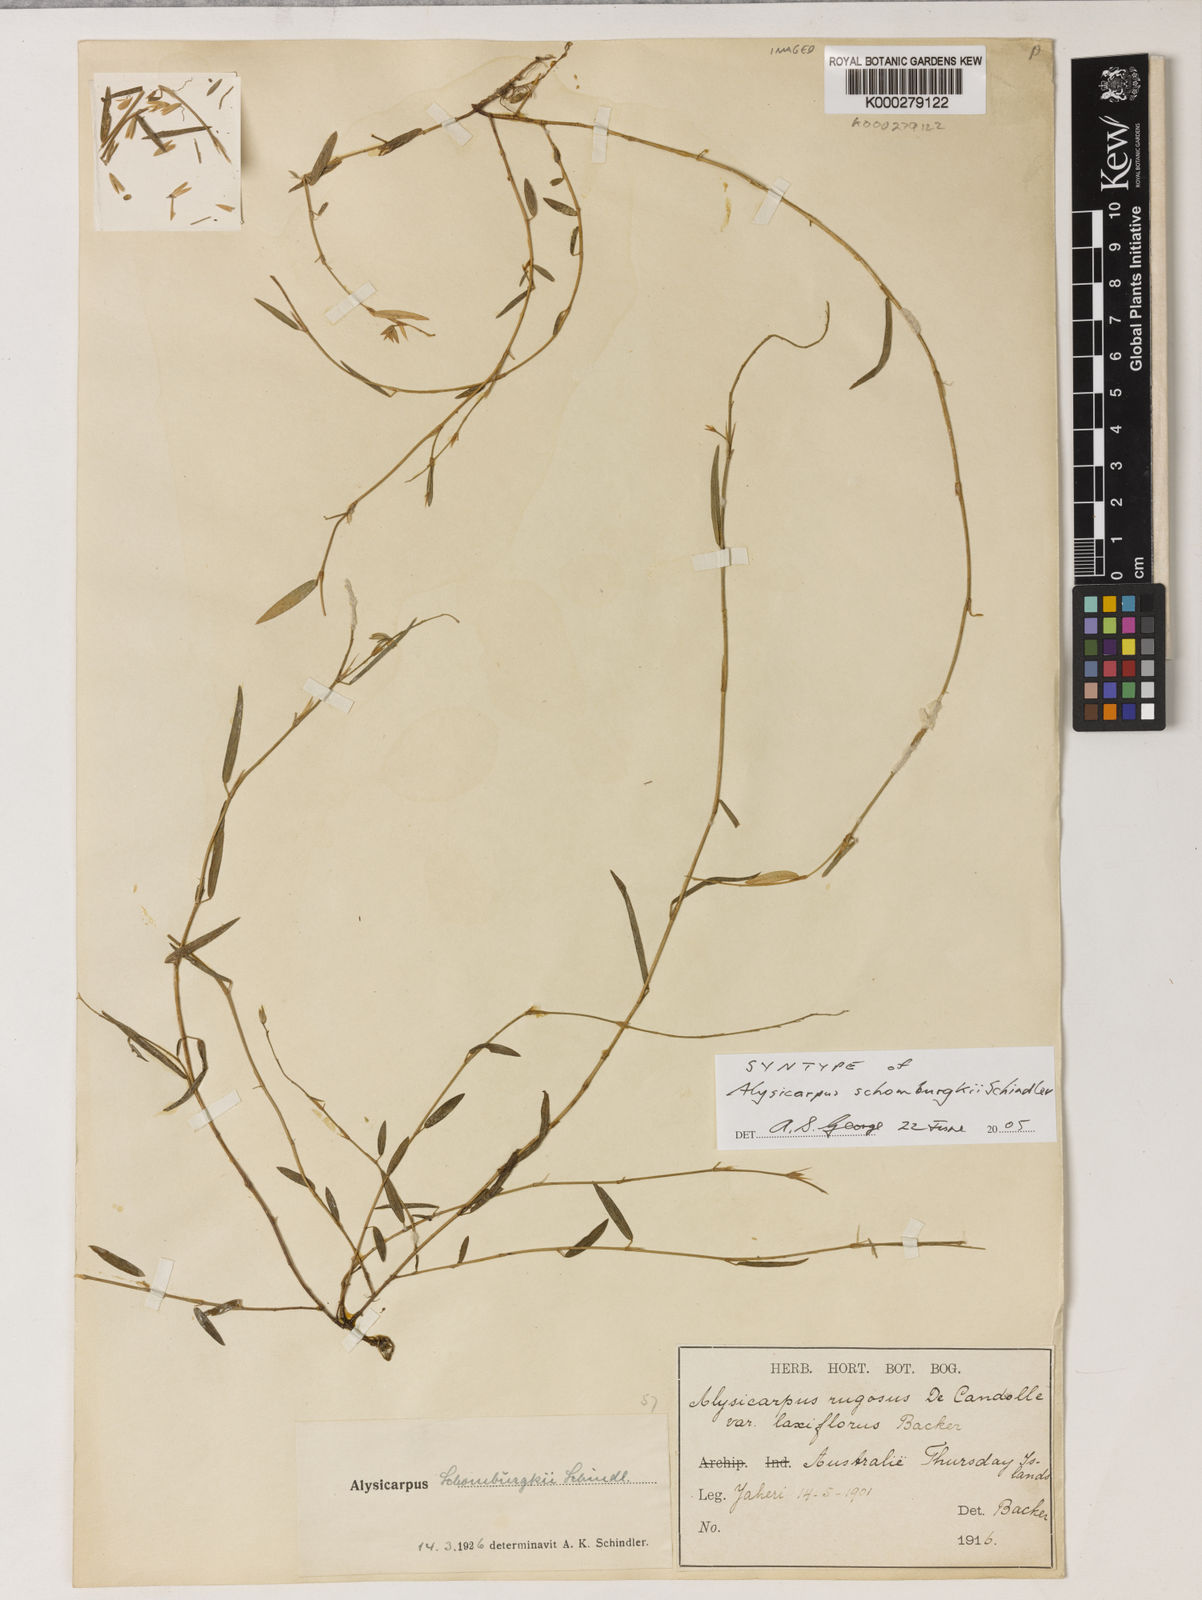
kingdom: Plantae
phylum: Tracheophyta
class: Magnoliopsida
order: Fabales
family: Fabaceae
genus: Alysicarpus
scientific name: Alysicarpus muelleri
